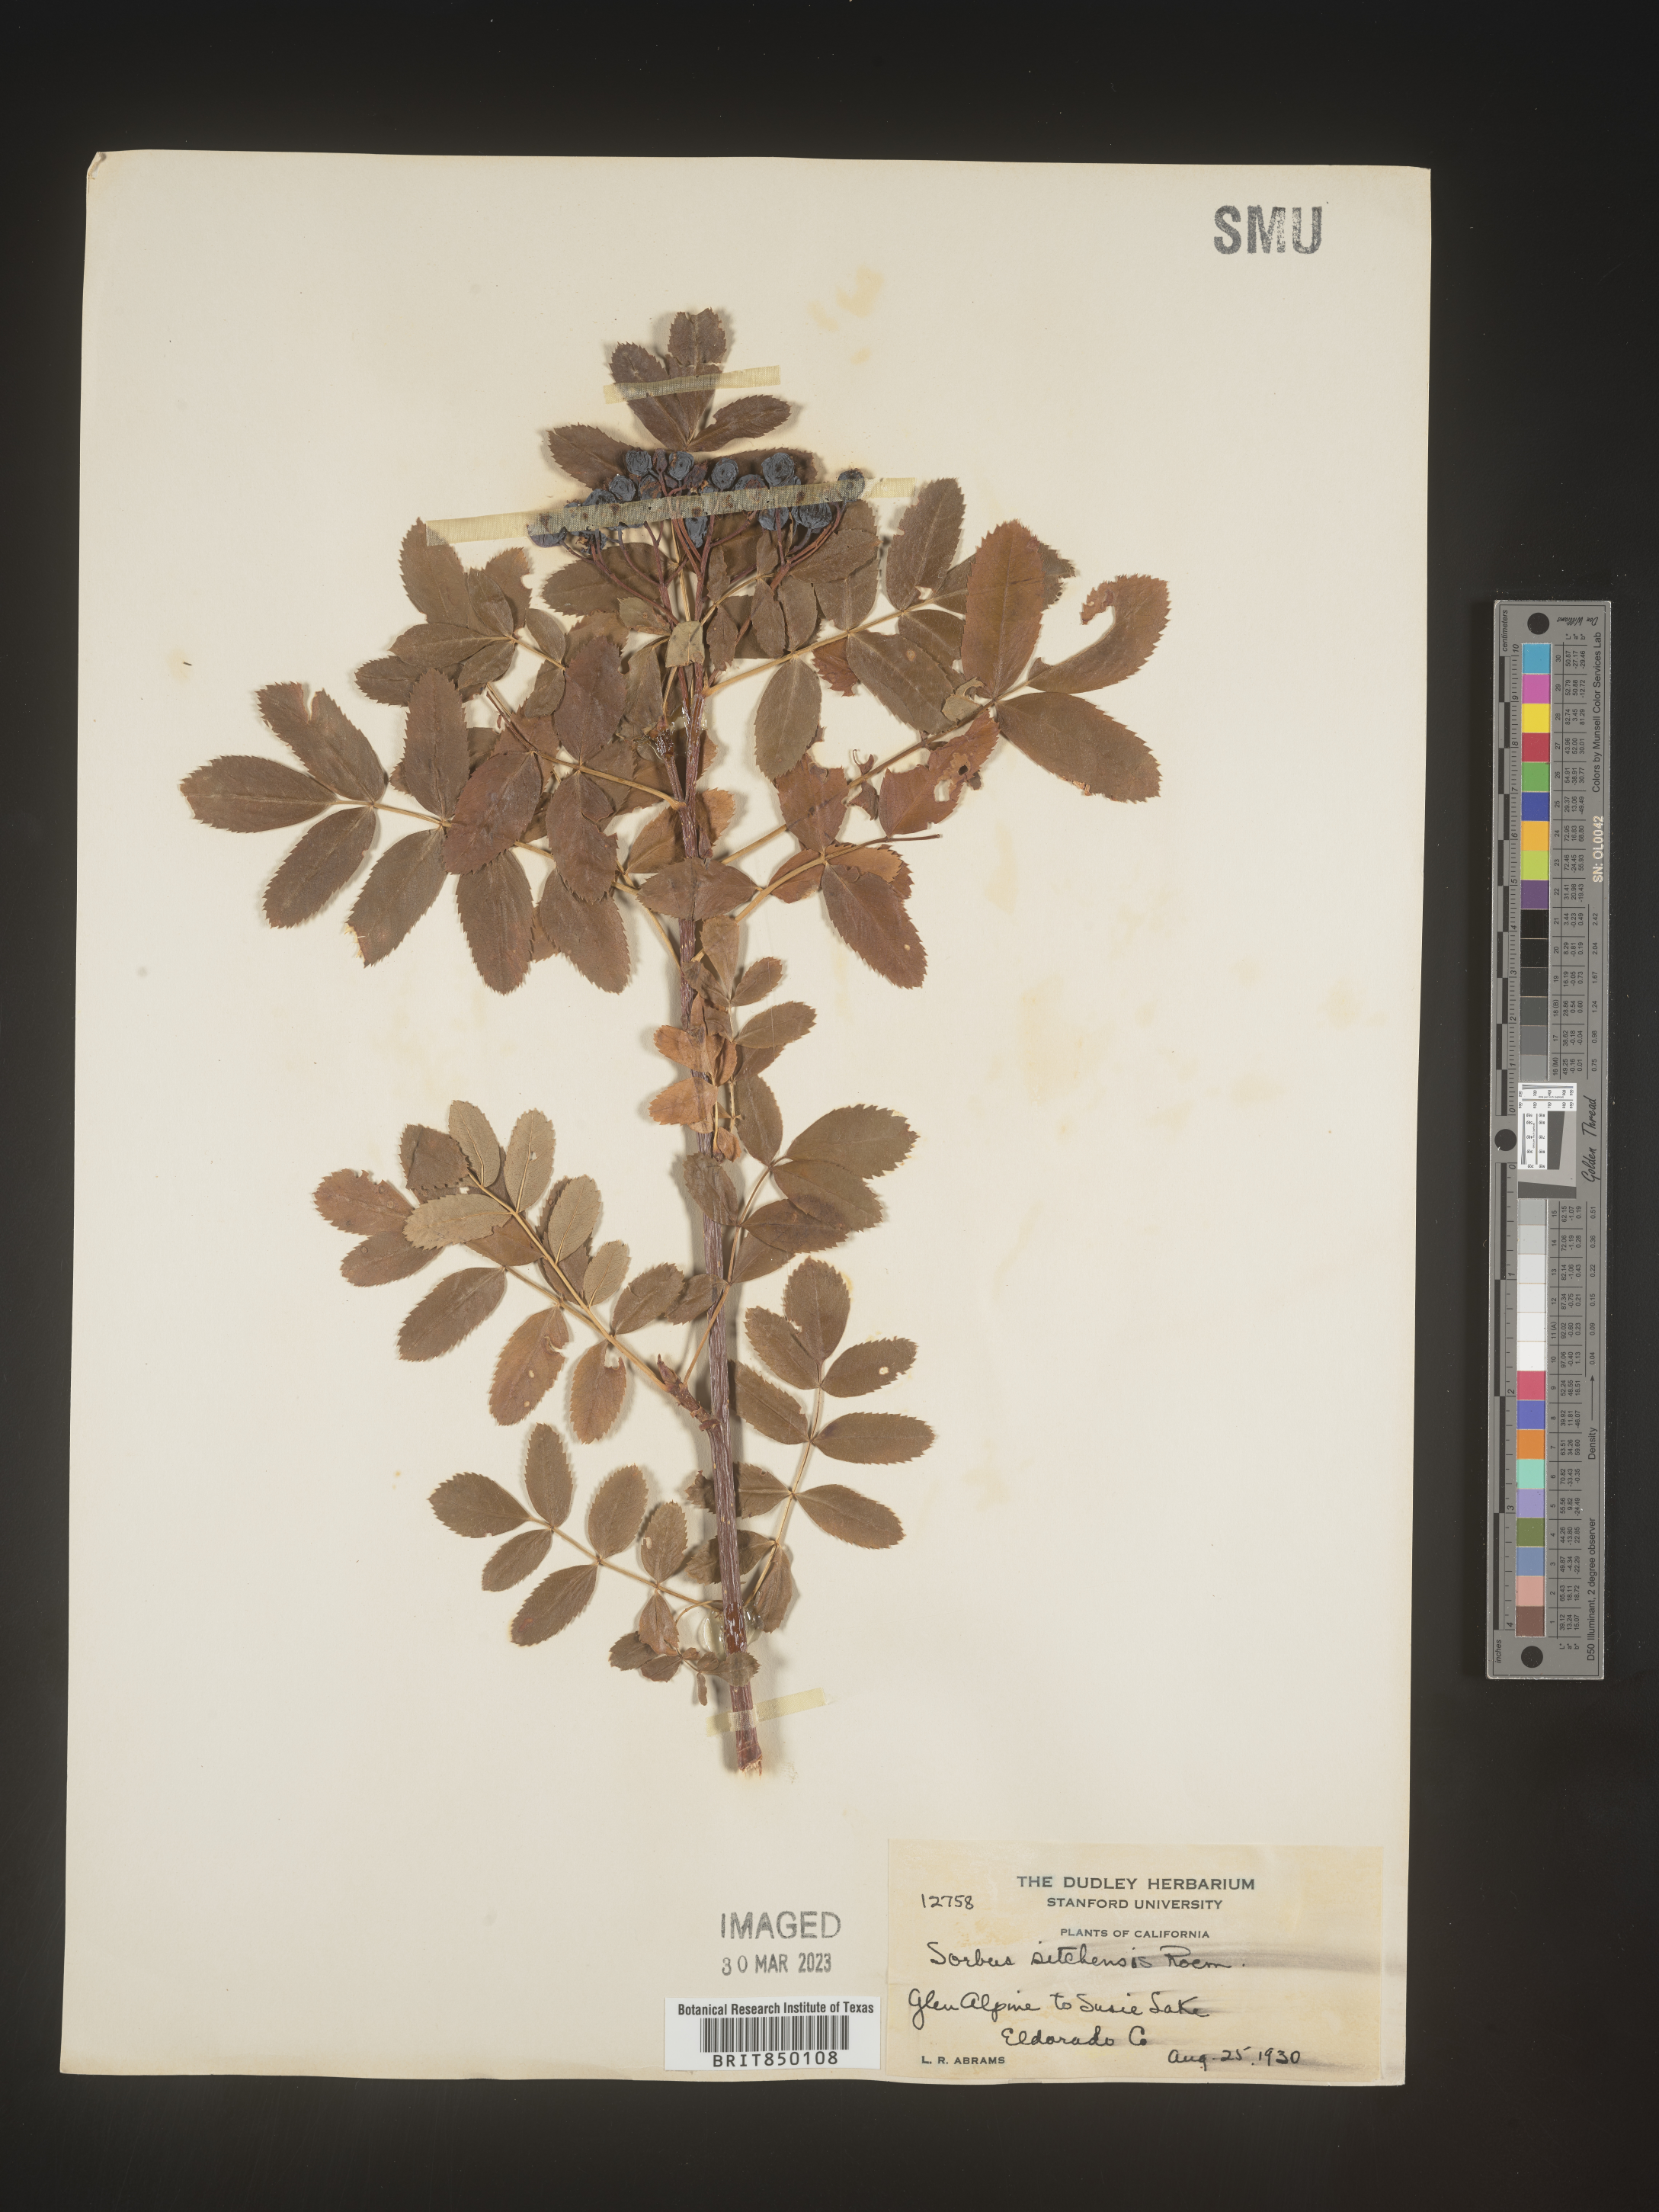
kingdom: Plantae
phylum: Tracheophyta
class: Magnoliopsida
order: Rosales
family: Rosaceae
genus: Sorbus
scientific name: Sorbus
